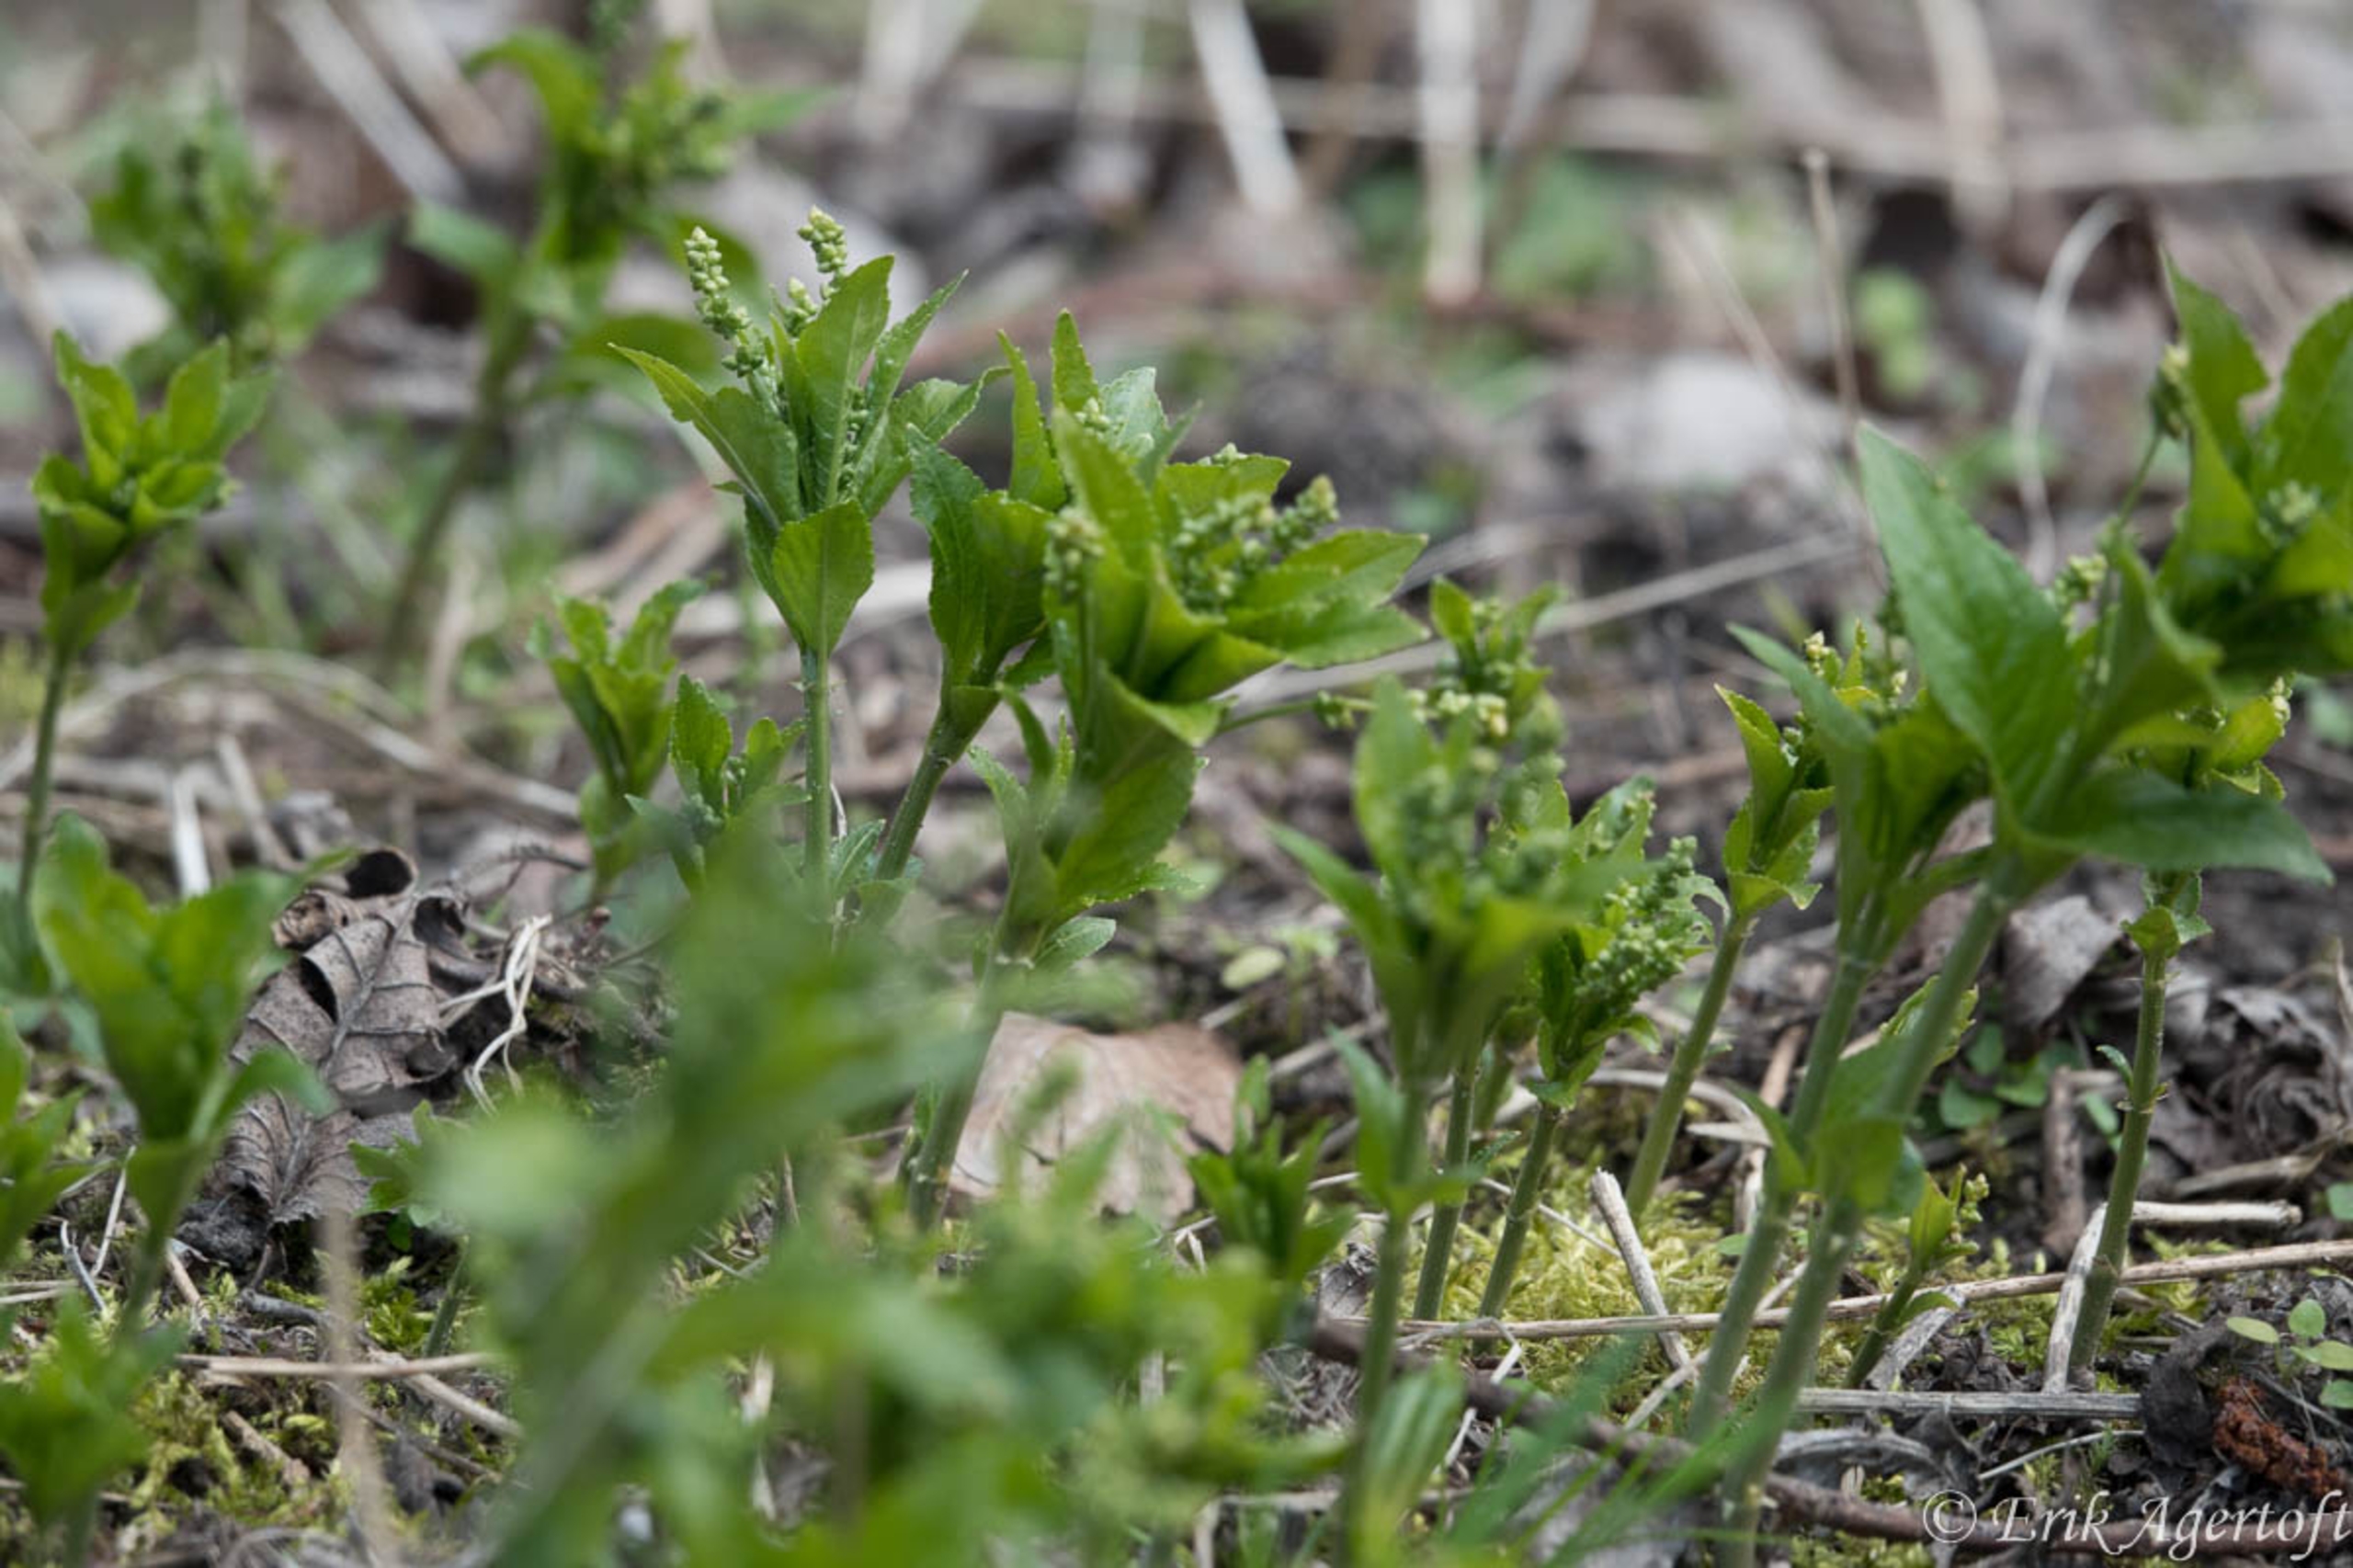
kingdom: Plantae
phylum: Tracheophyta
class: Magnoliopsida
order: Malpighiales
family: Euphorbiaceae
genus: Mercurialis
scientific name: Mercurialis perennis
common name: Almindelig bingelurt
